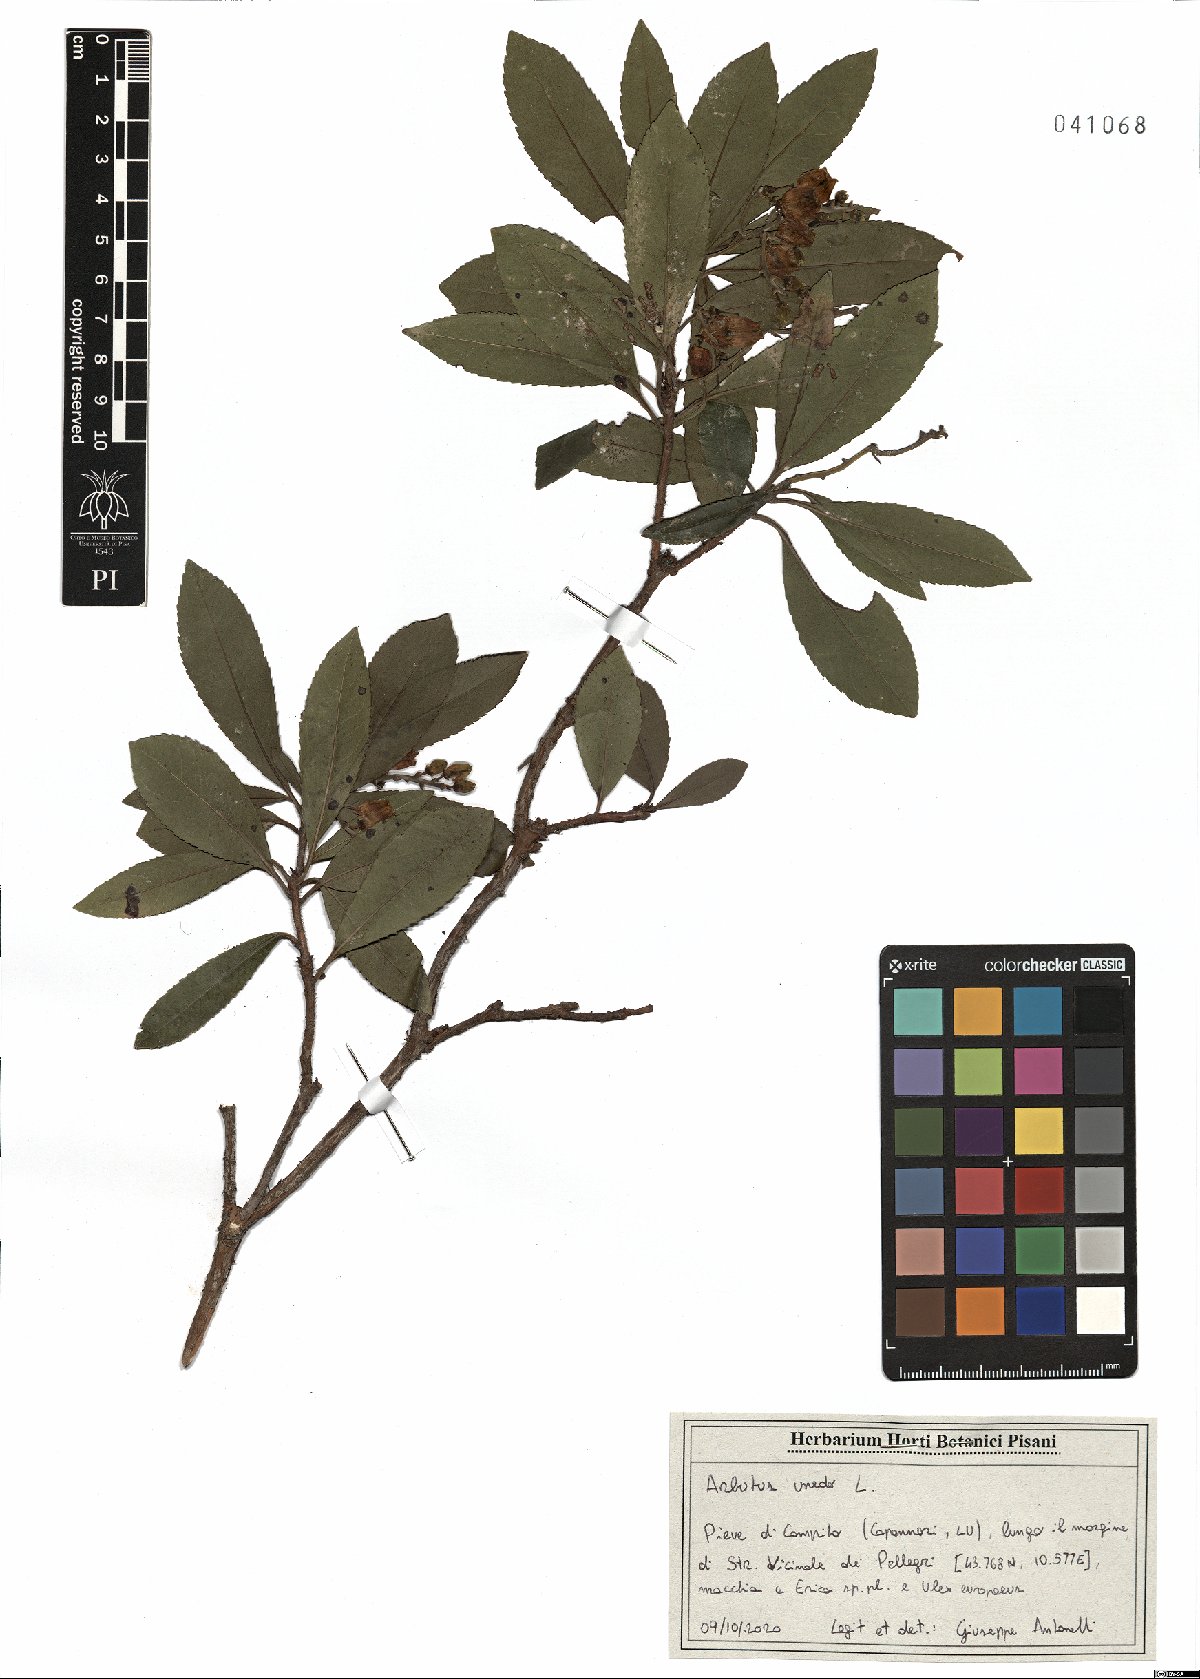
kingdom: Plantae
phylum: Tracheophyta
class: Magnoliopsida
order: Ericales
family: Ericaceae
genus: Arbutus
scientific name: Arbutus unedo
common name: Strawberry-tree
